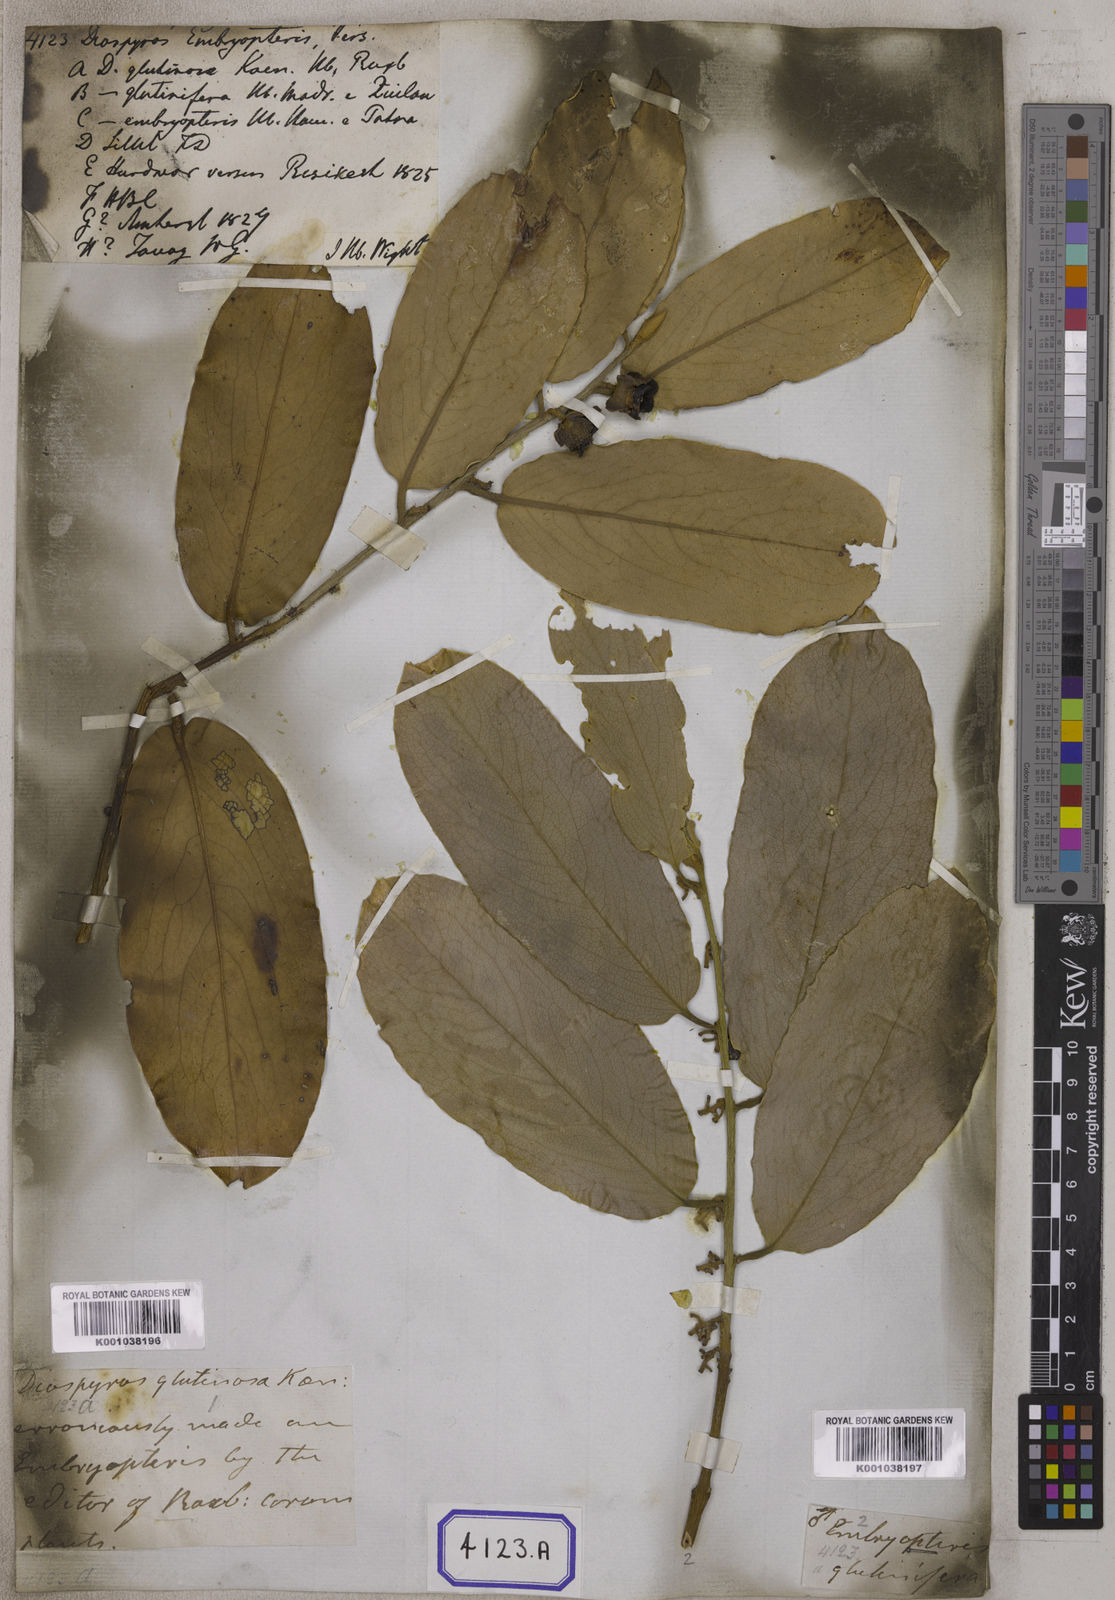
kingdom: Plantae
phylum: Tracheophyta
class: Magnoliopsida
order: Ericales
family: Ebenaceae
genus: Diospyros
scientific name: Diospyros malabarica
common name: Mountain ebony
